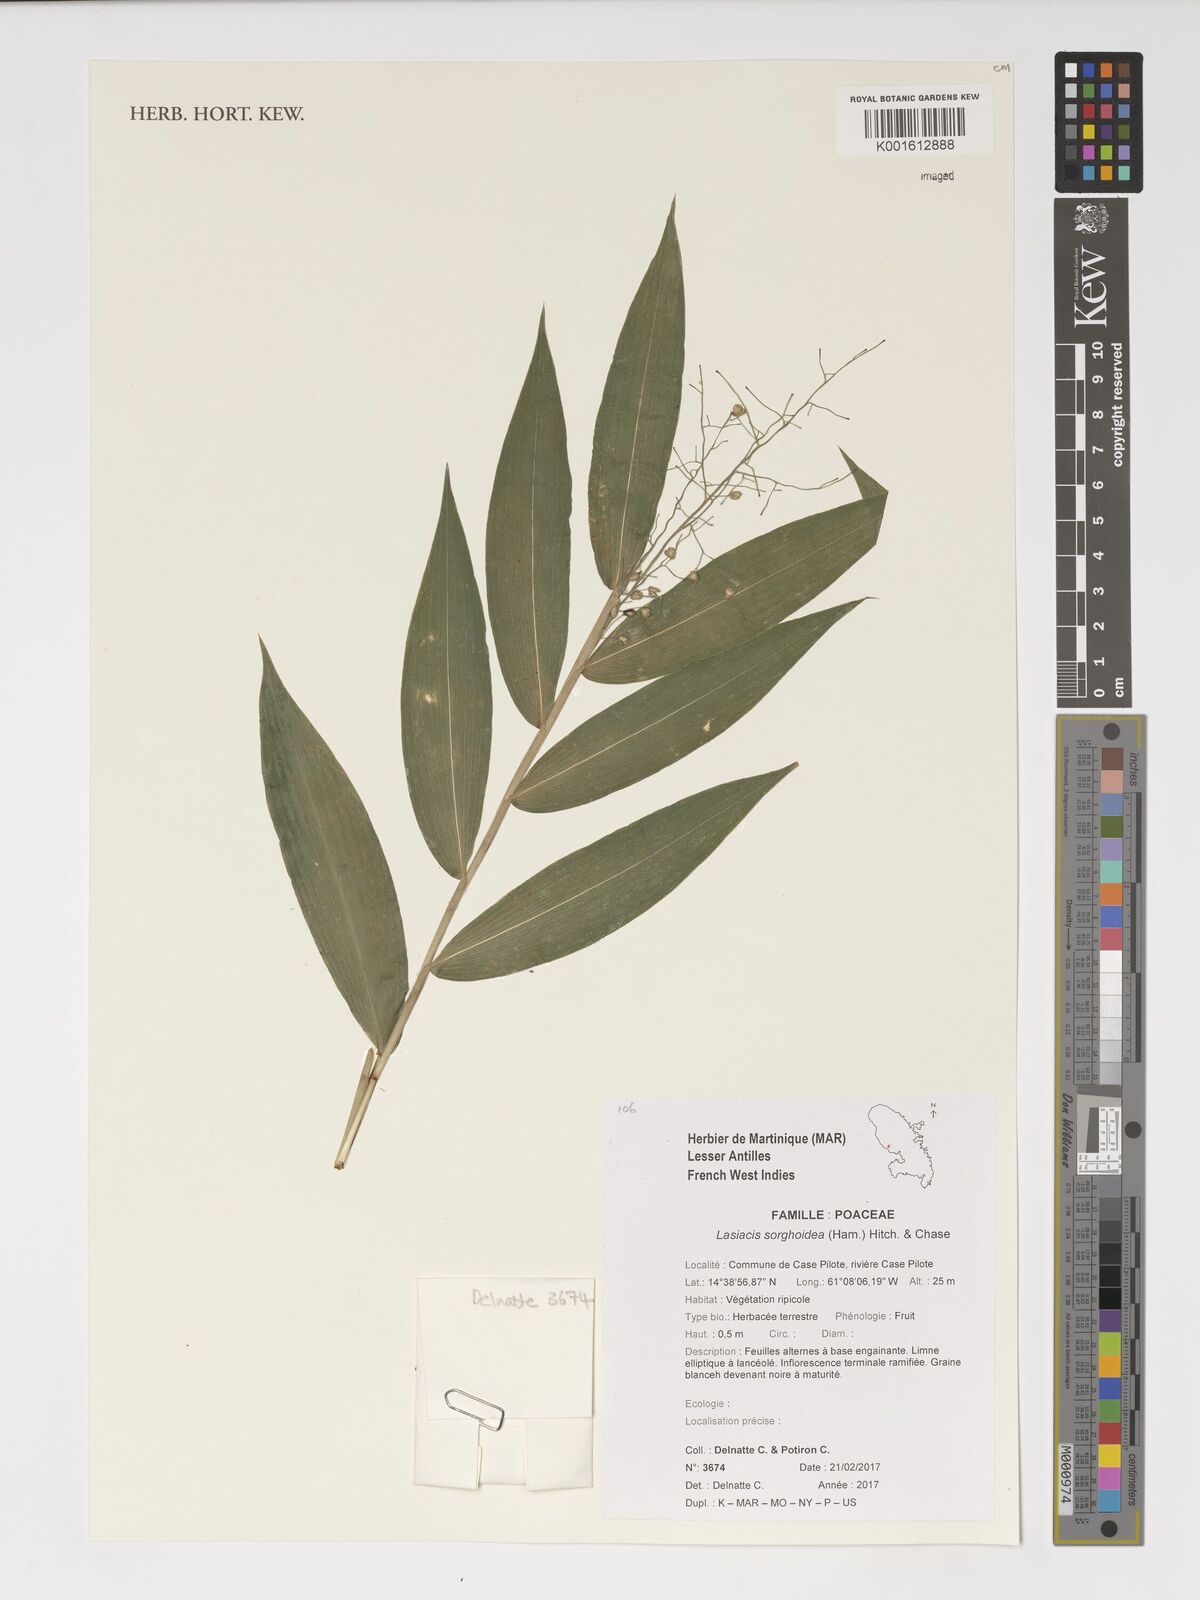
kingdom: Plantae
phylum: Tracheophyta
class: Liliopsida
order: Poales
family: Poaceae
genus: Lasiacis
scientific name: Lasiacis maculata
